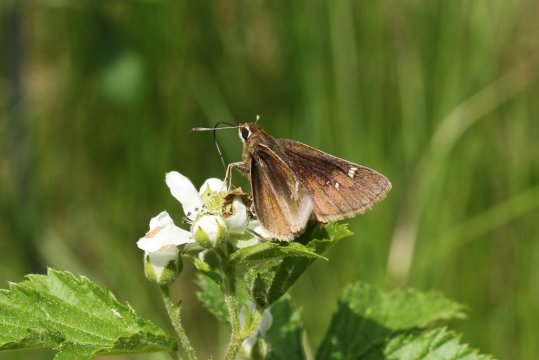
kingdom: Animalia
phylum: Arthropoda
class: Insecta
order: Lepidoptera
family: Hesperiidae
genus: Atrytonopsis
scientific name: Atrytonopsis hianna
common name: Dusted Skipper
